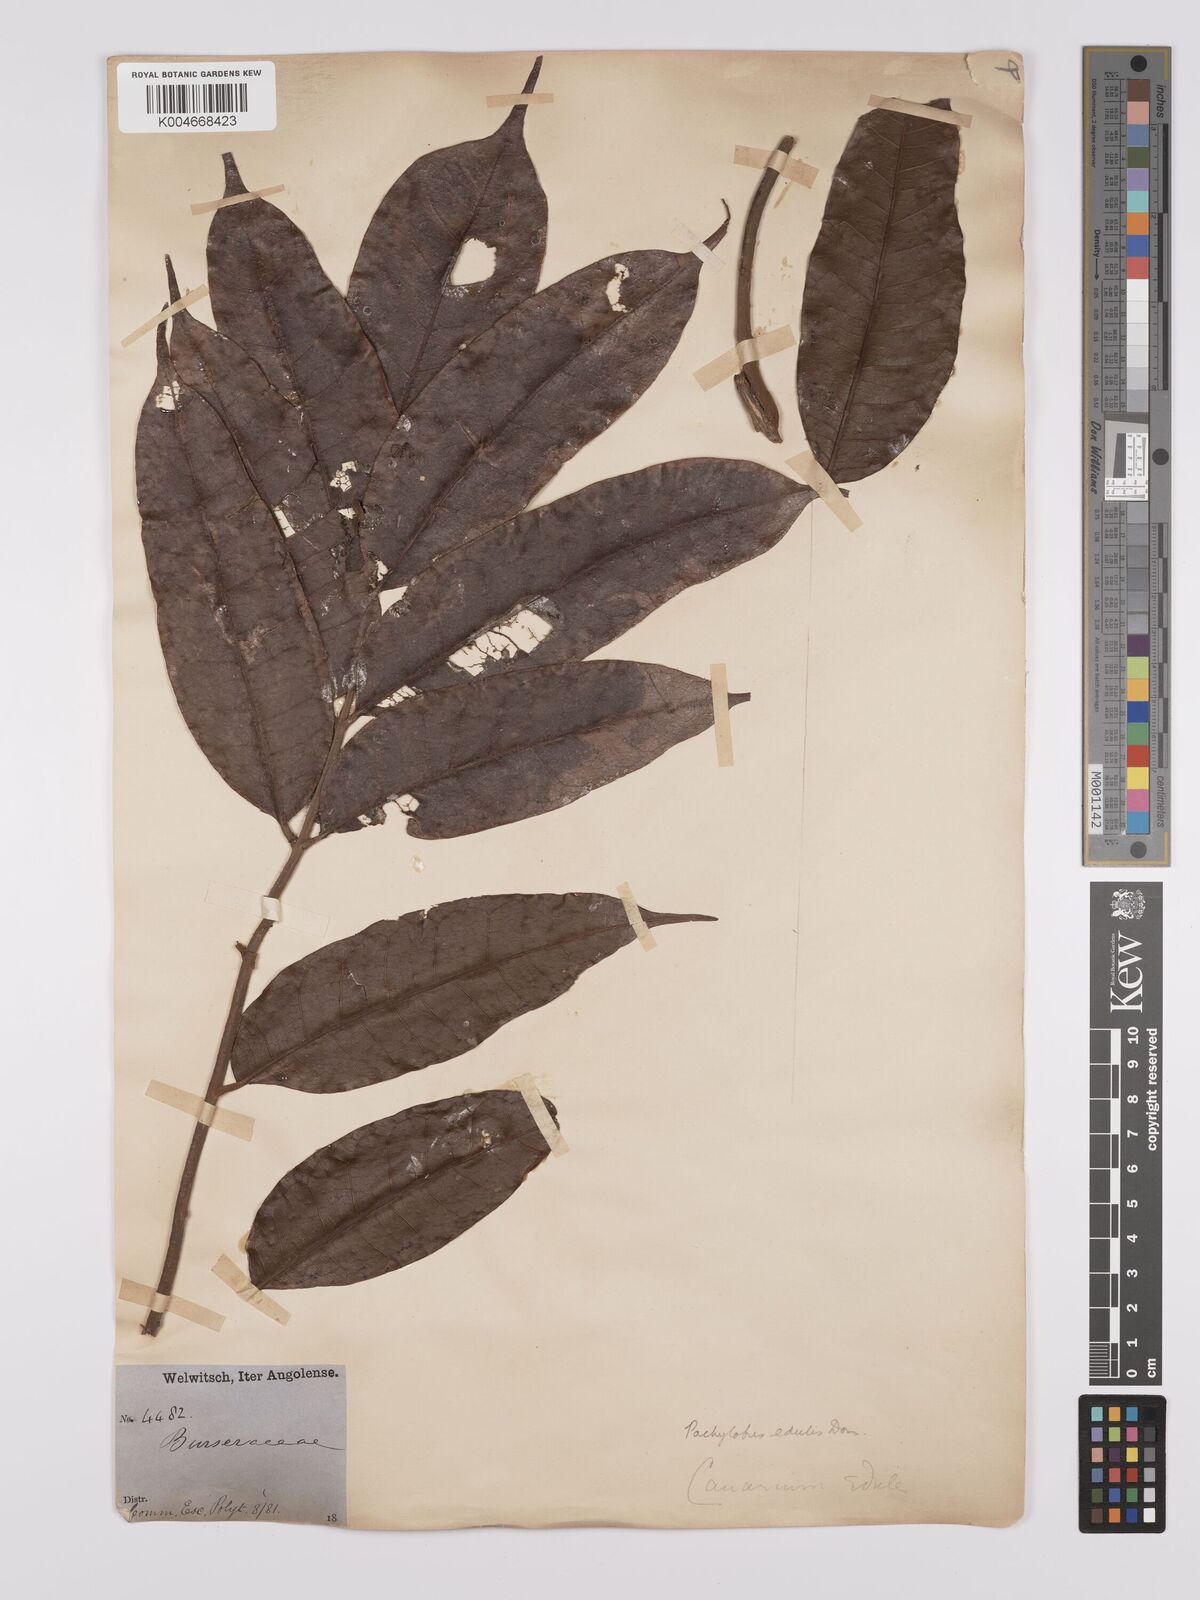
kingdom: Plantae
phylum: Tracheophyta
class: Magnoliopsida
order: Sapindales
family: Burseraceae
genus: Pachylobus
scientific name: Pachylobus edulis
